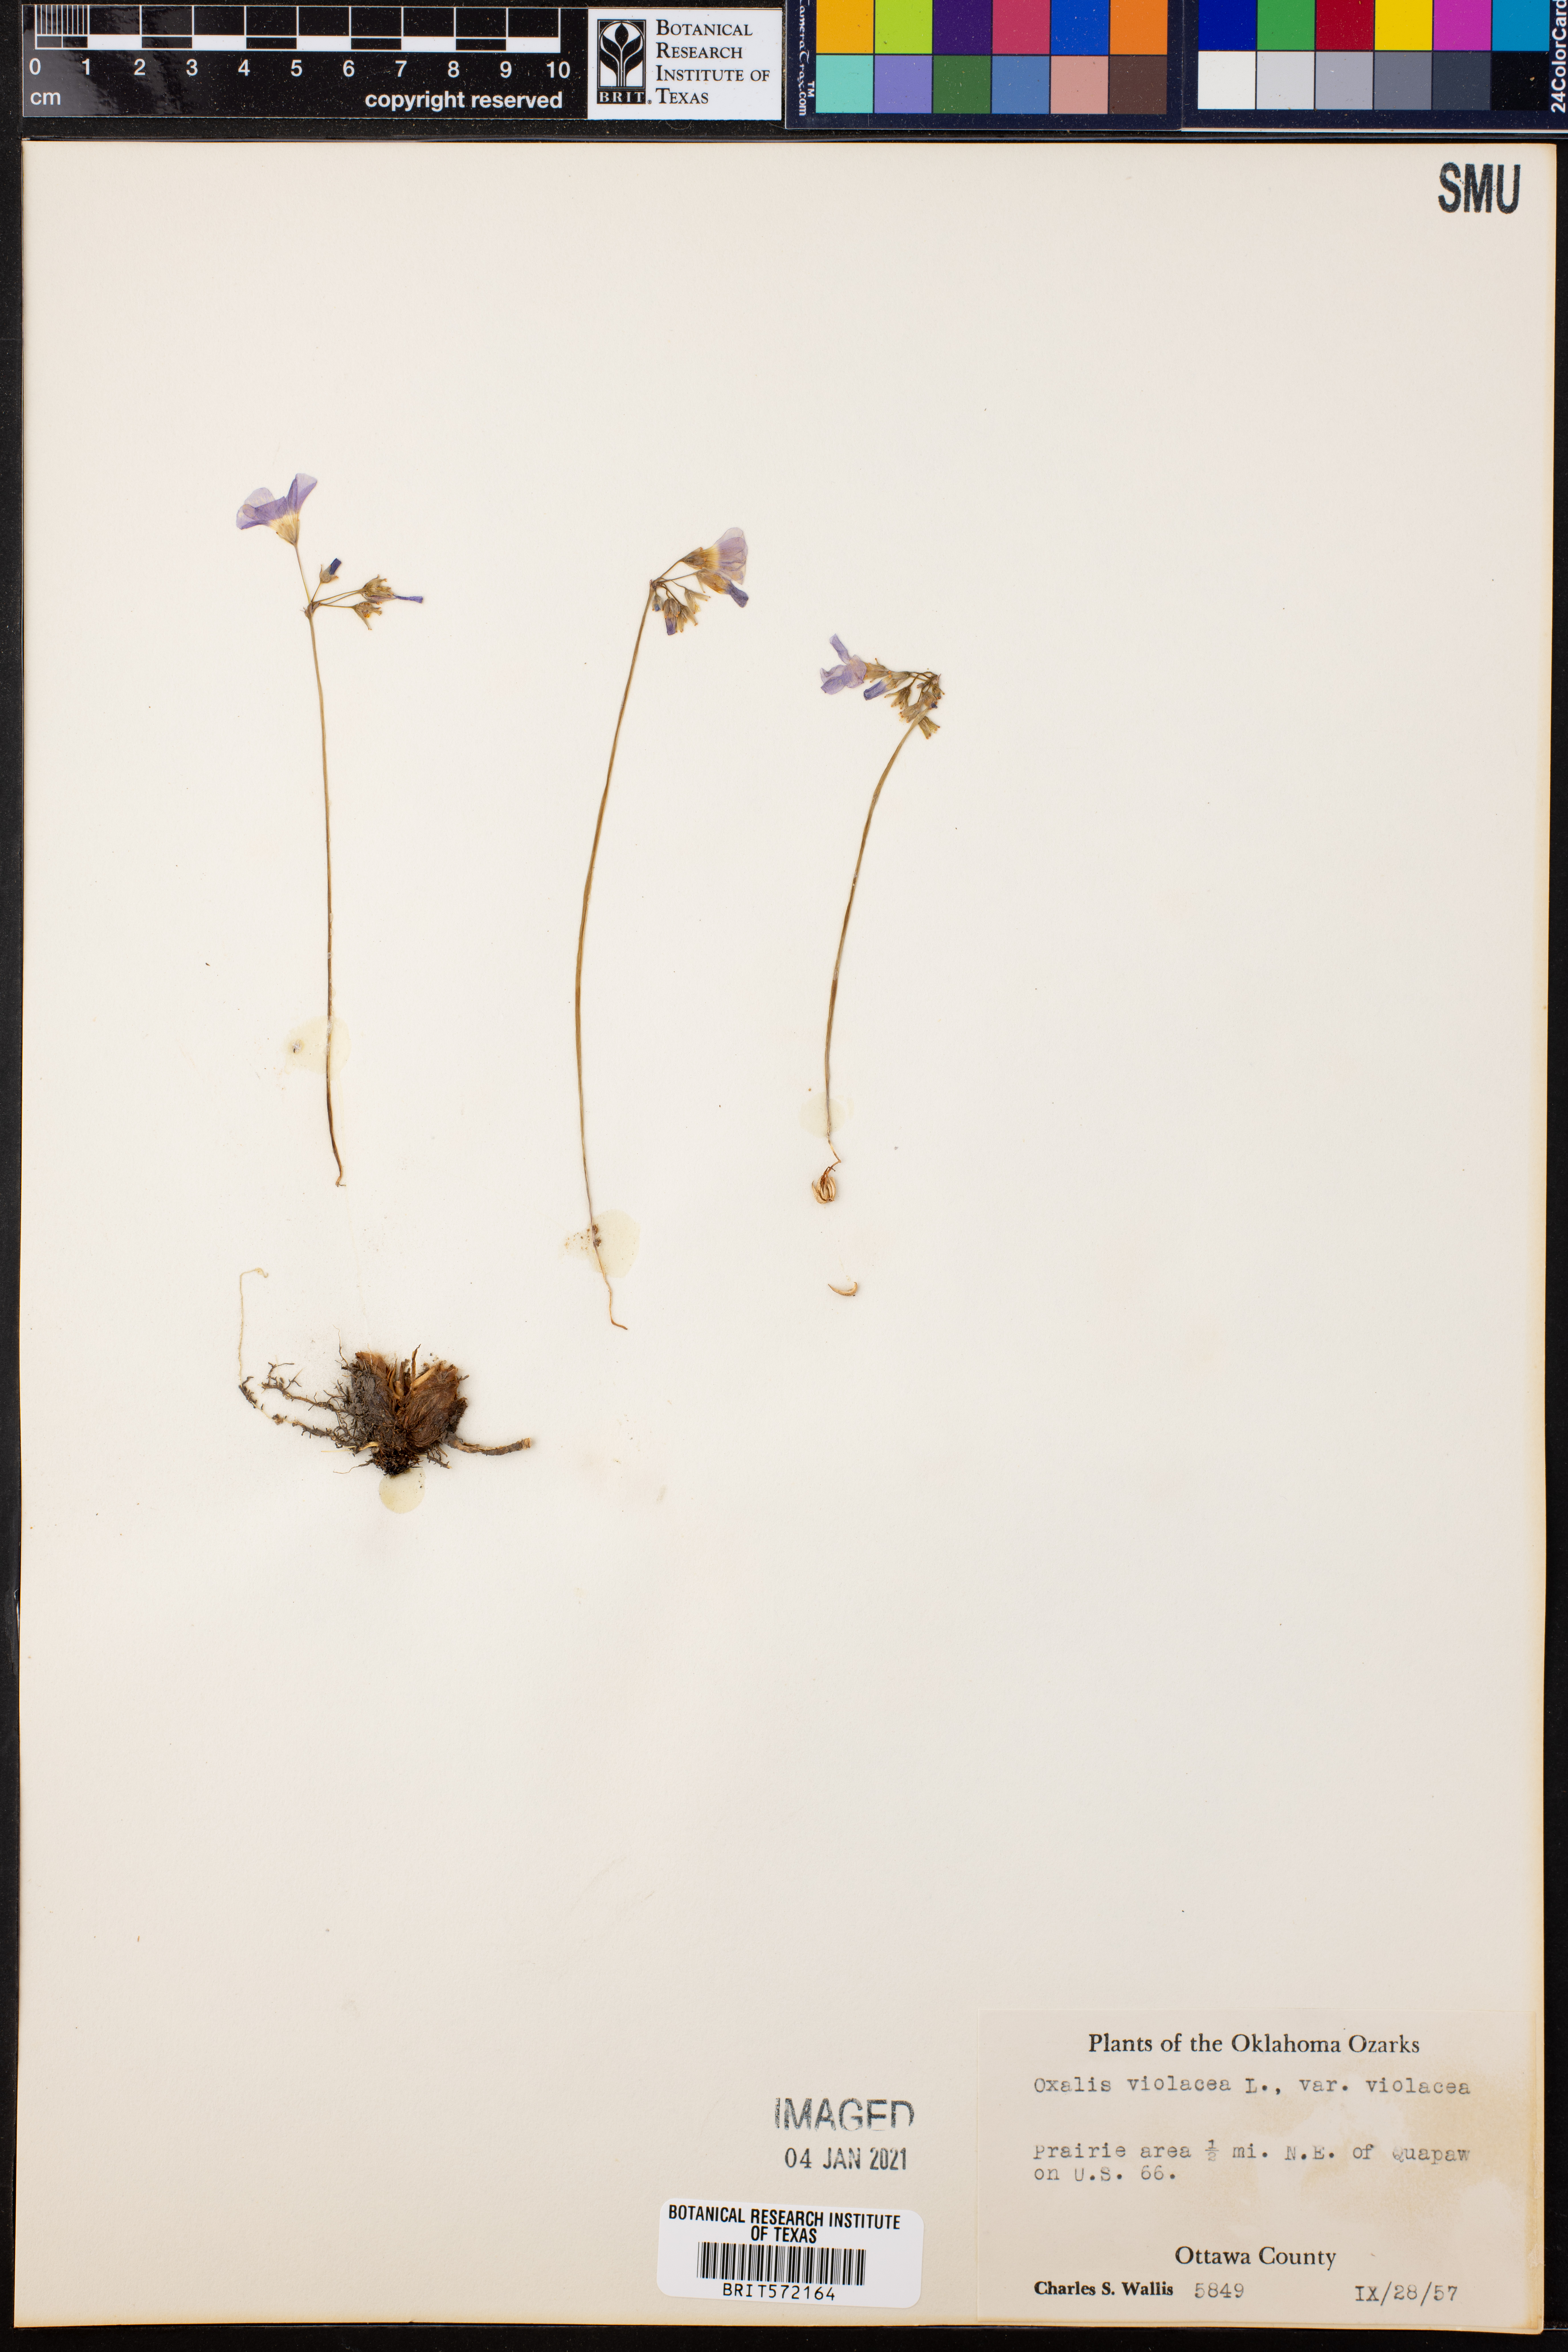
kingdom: Plantae
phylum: Tracheophyta
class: Magnoliopsida
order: Oxalidales
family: Oxalidaceae
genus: Oxalis
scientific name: Oxalis violacea
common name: Violet wood-sorrel
